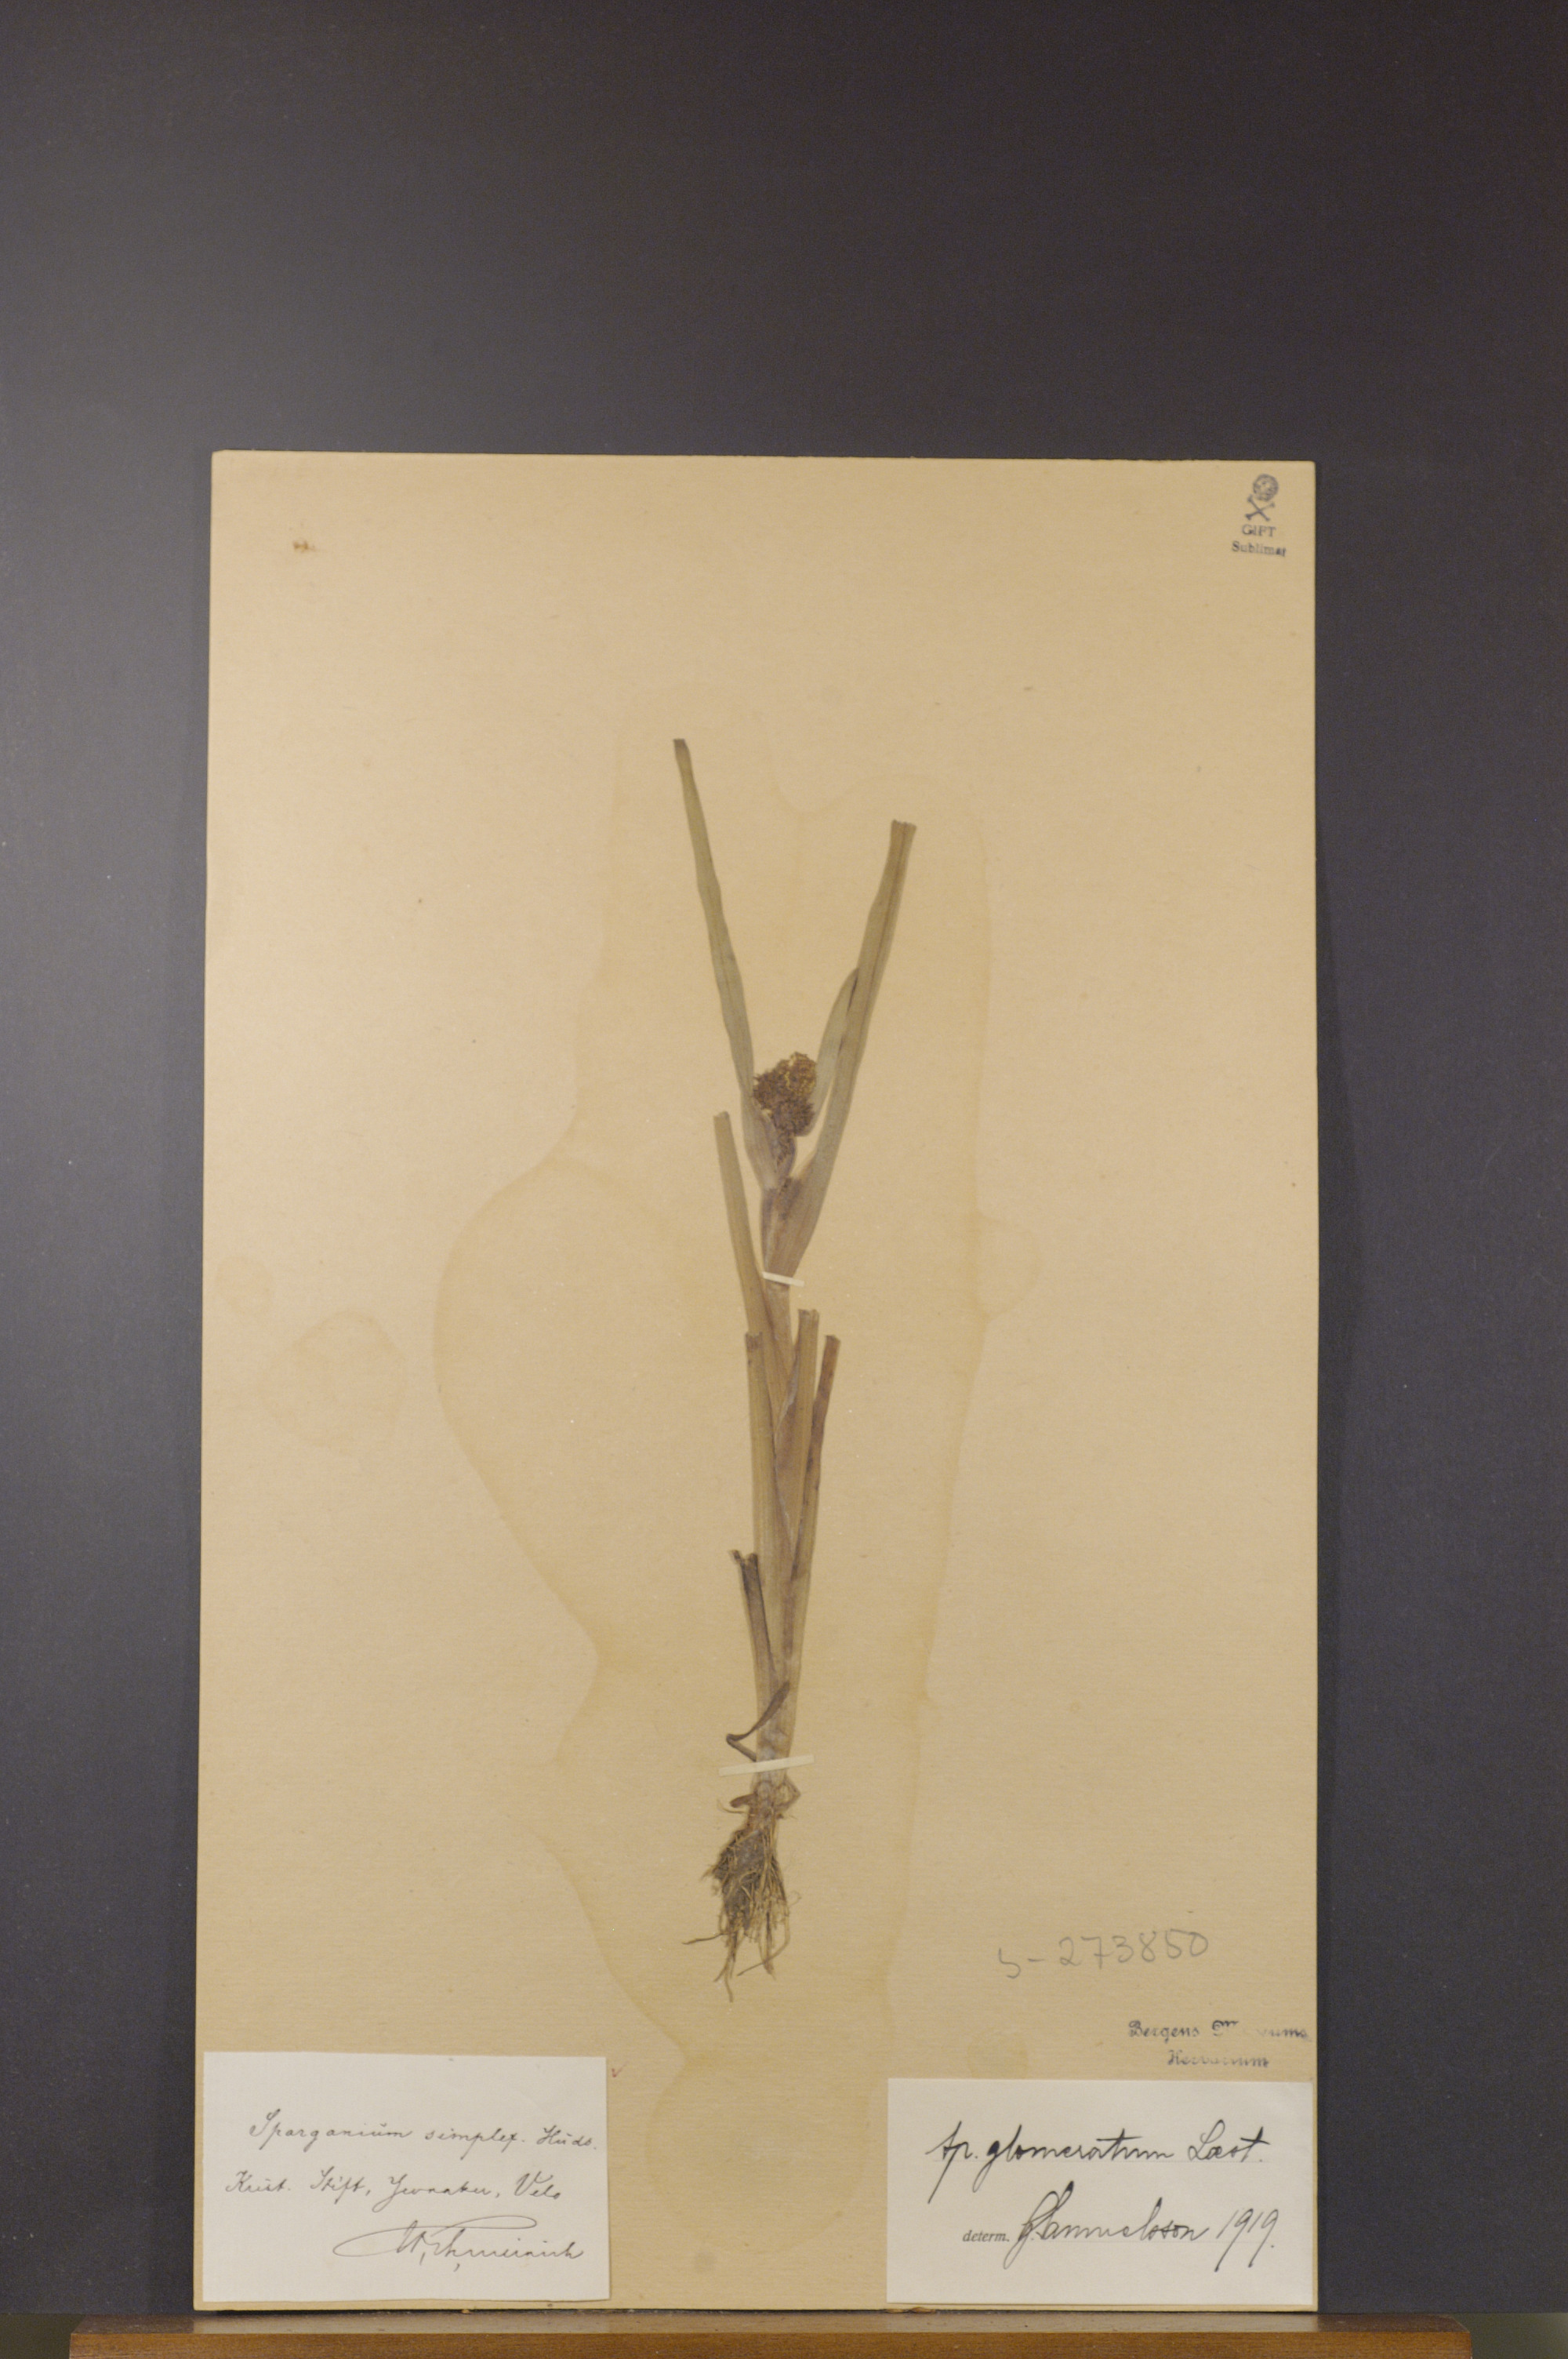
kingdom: Plantae
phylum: Tracheophyta
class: Liliopsida
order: Poales
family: Typhaceae
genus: Sparganium
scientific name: Sparganium glomeratum
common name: Clustered burreed
